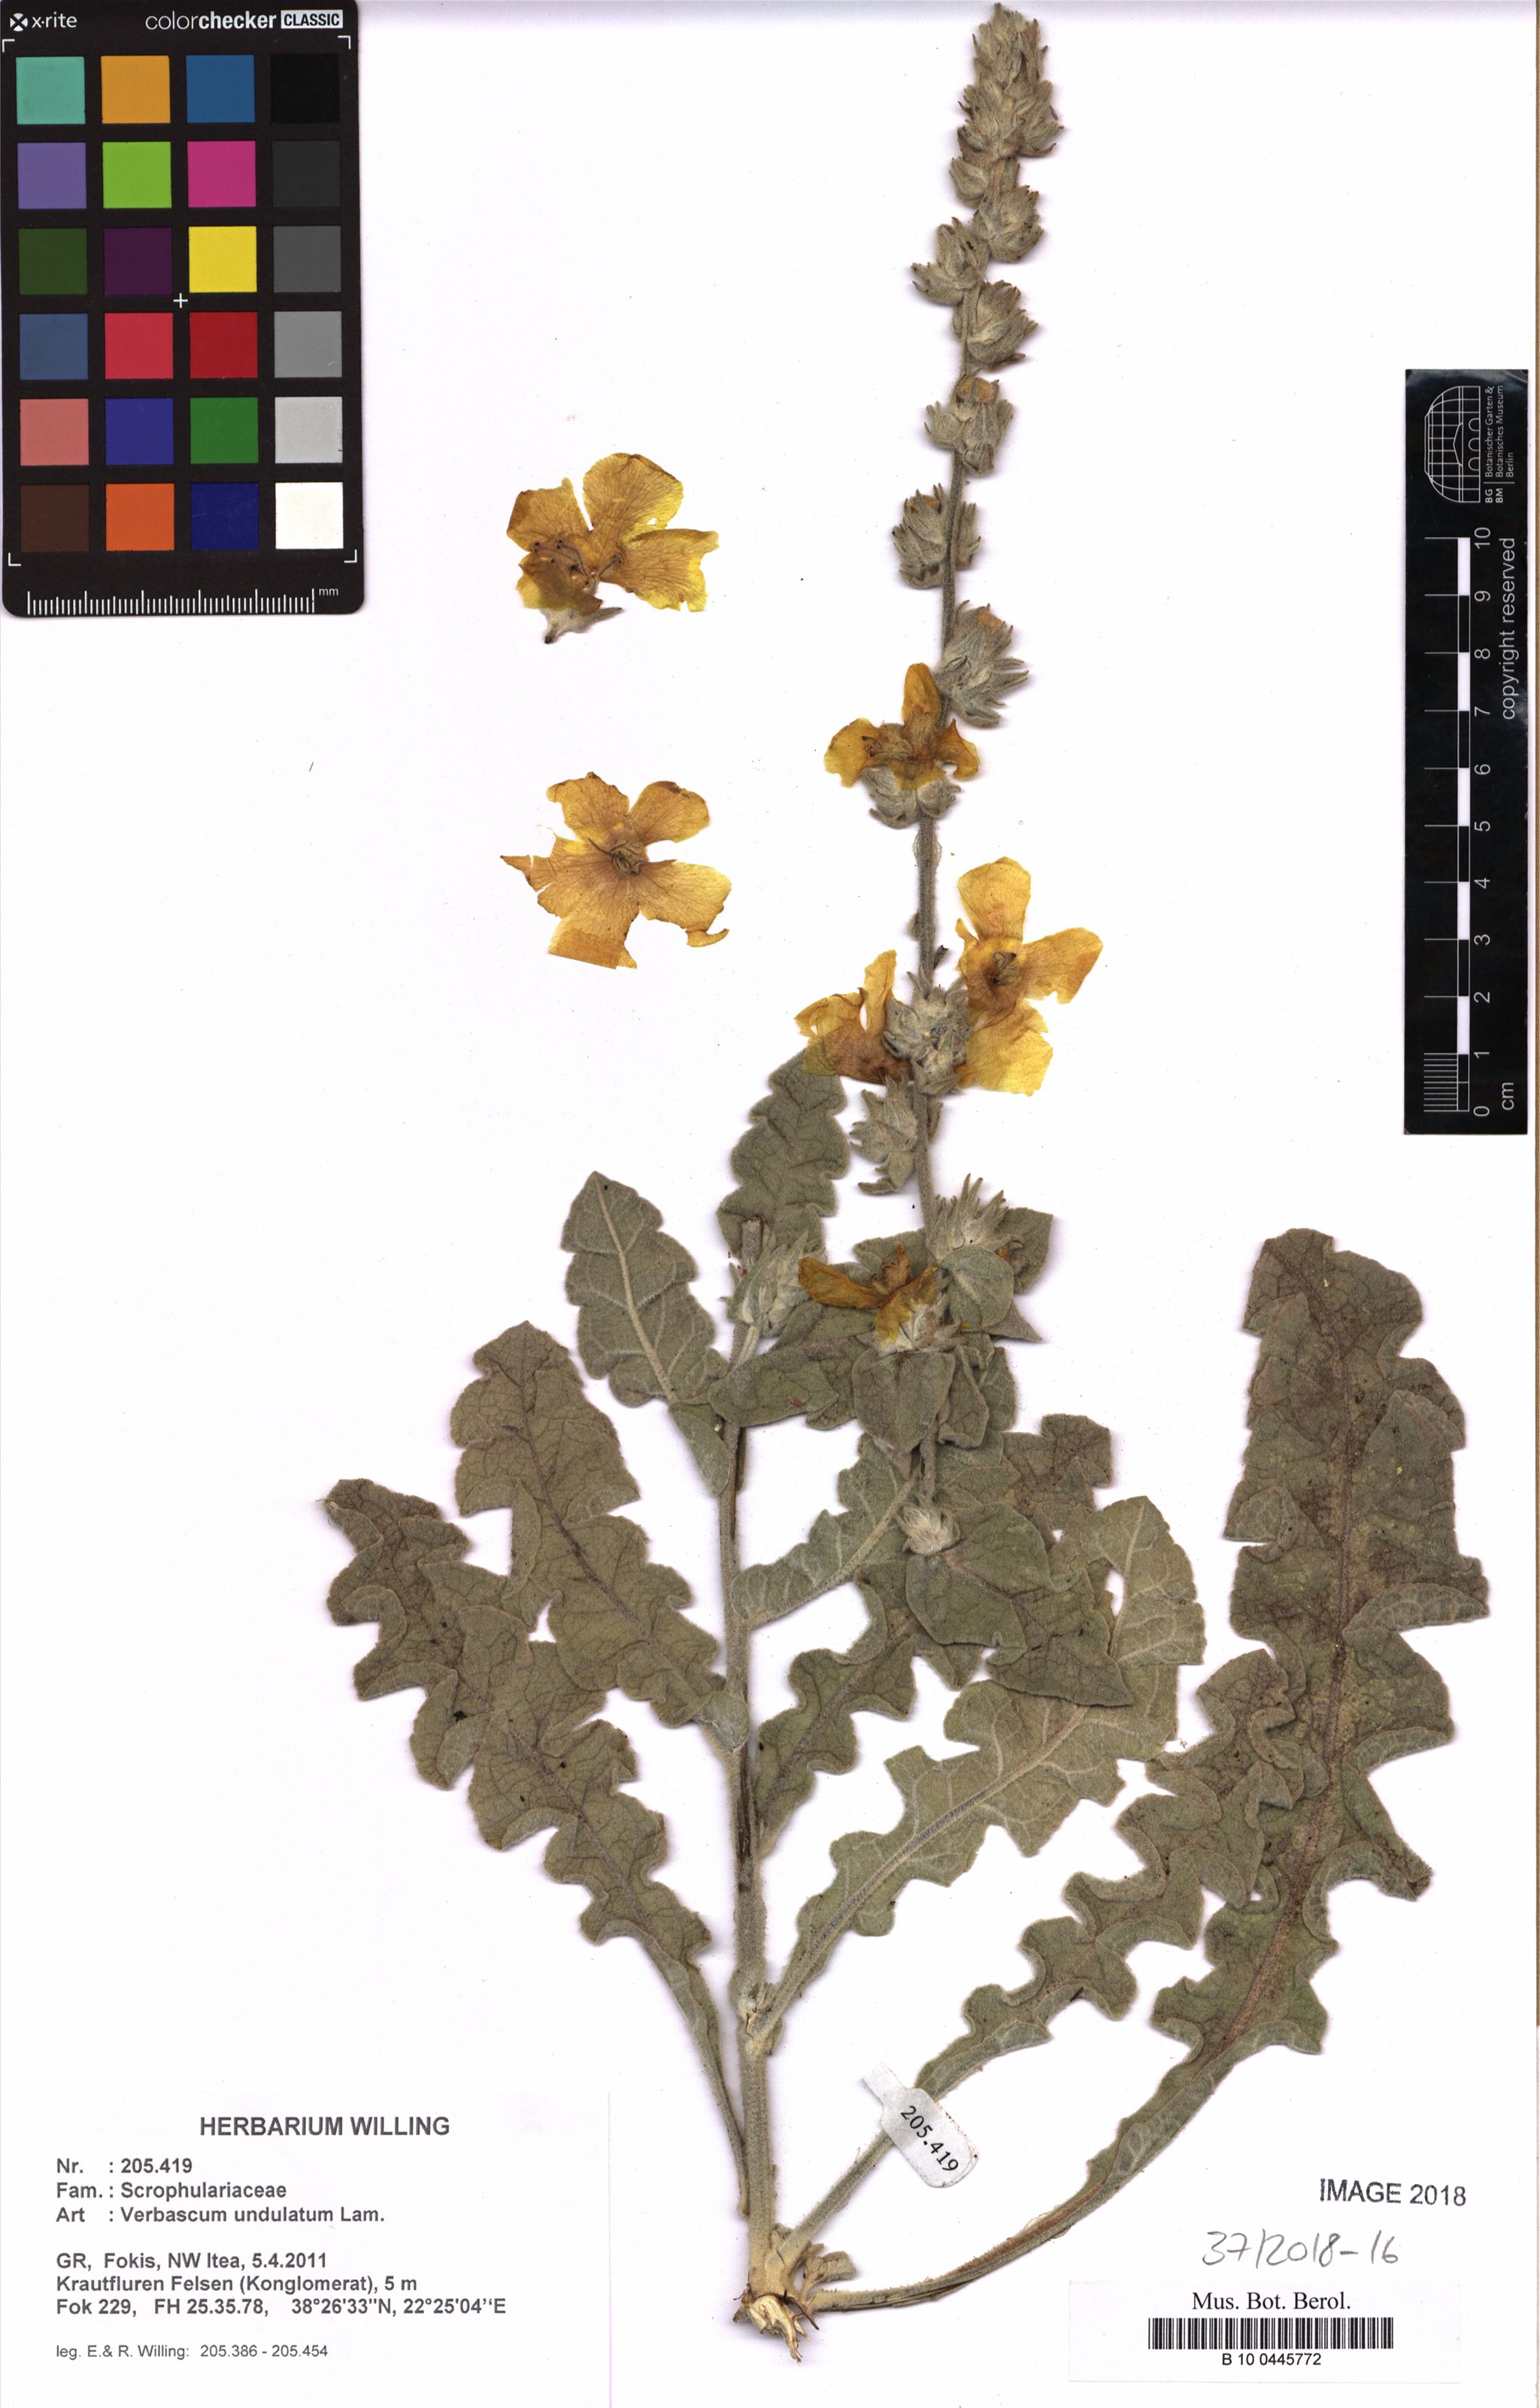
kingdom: Plantae
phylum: Tracheophyta
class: Magnoliopsida
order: Lamiales
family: Scrophulariaceae
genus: Verbascum
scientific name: Verbascum undulatum
